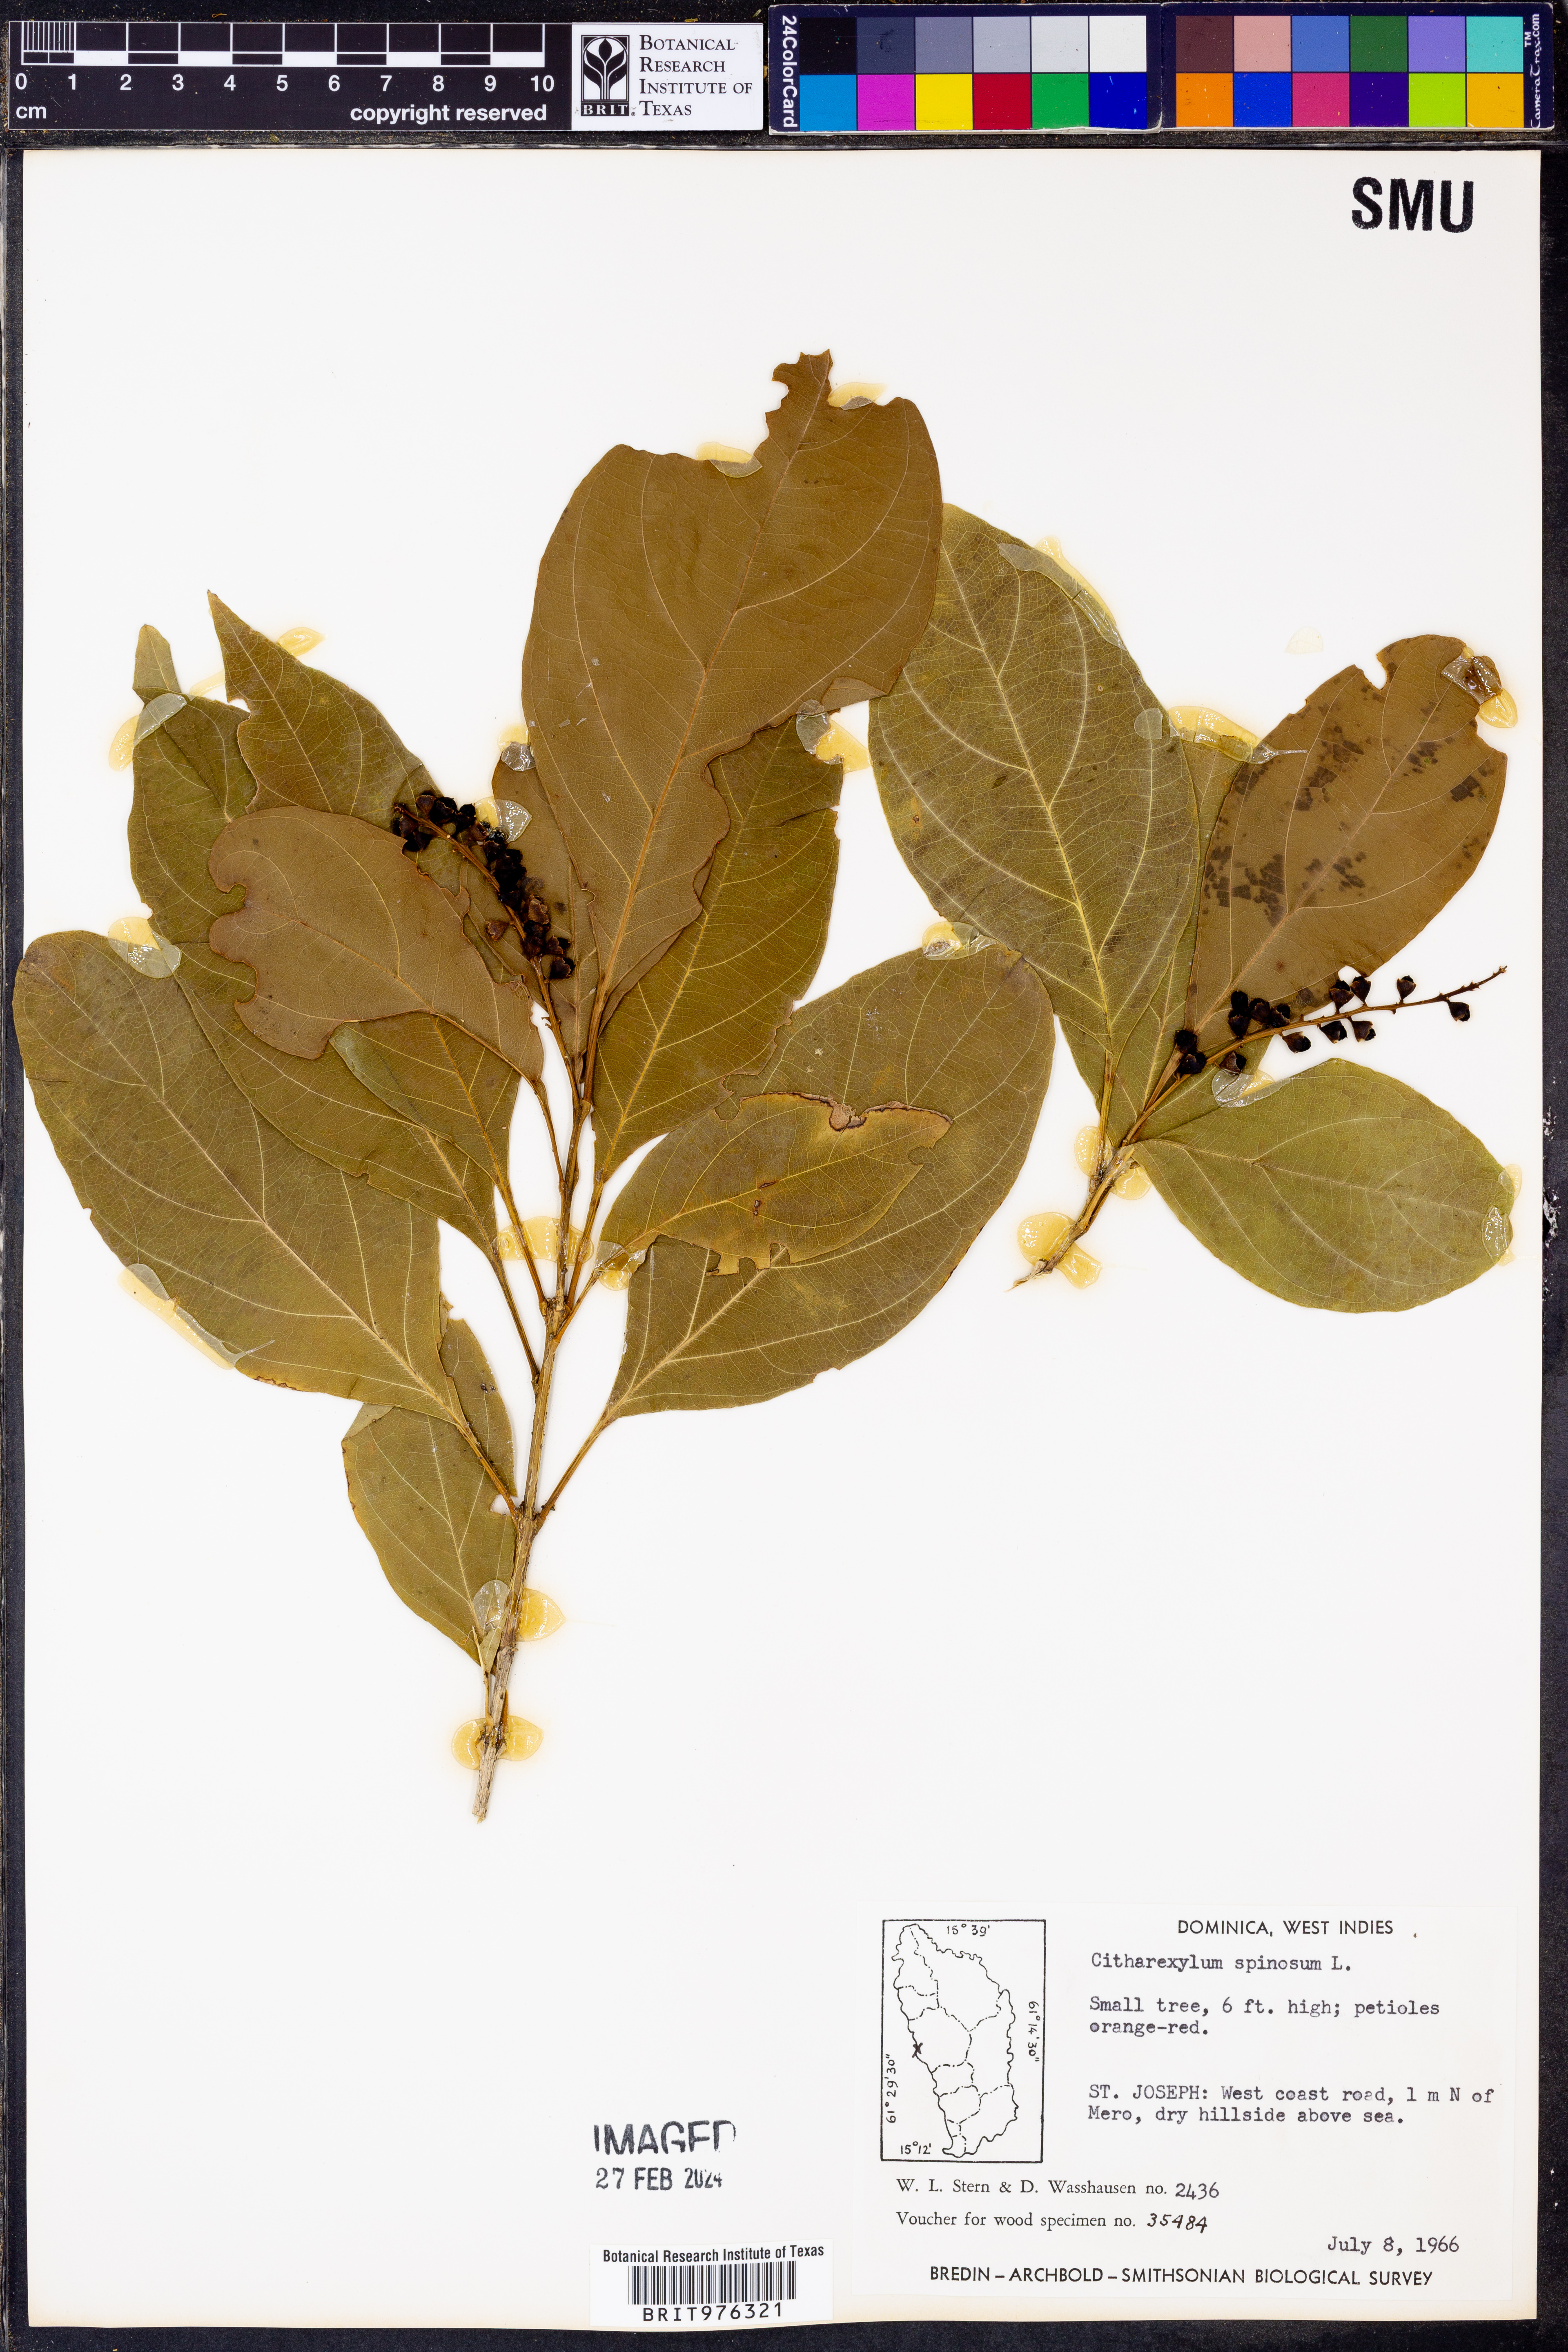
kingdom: Plantae
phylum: Tracheophyta
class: Magnoliopsida
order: Lamiales
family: Verbenaceae
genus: Citharexylum
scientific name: Citharexylum
